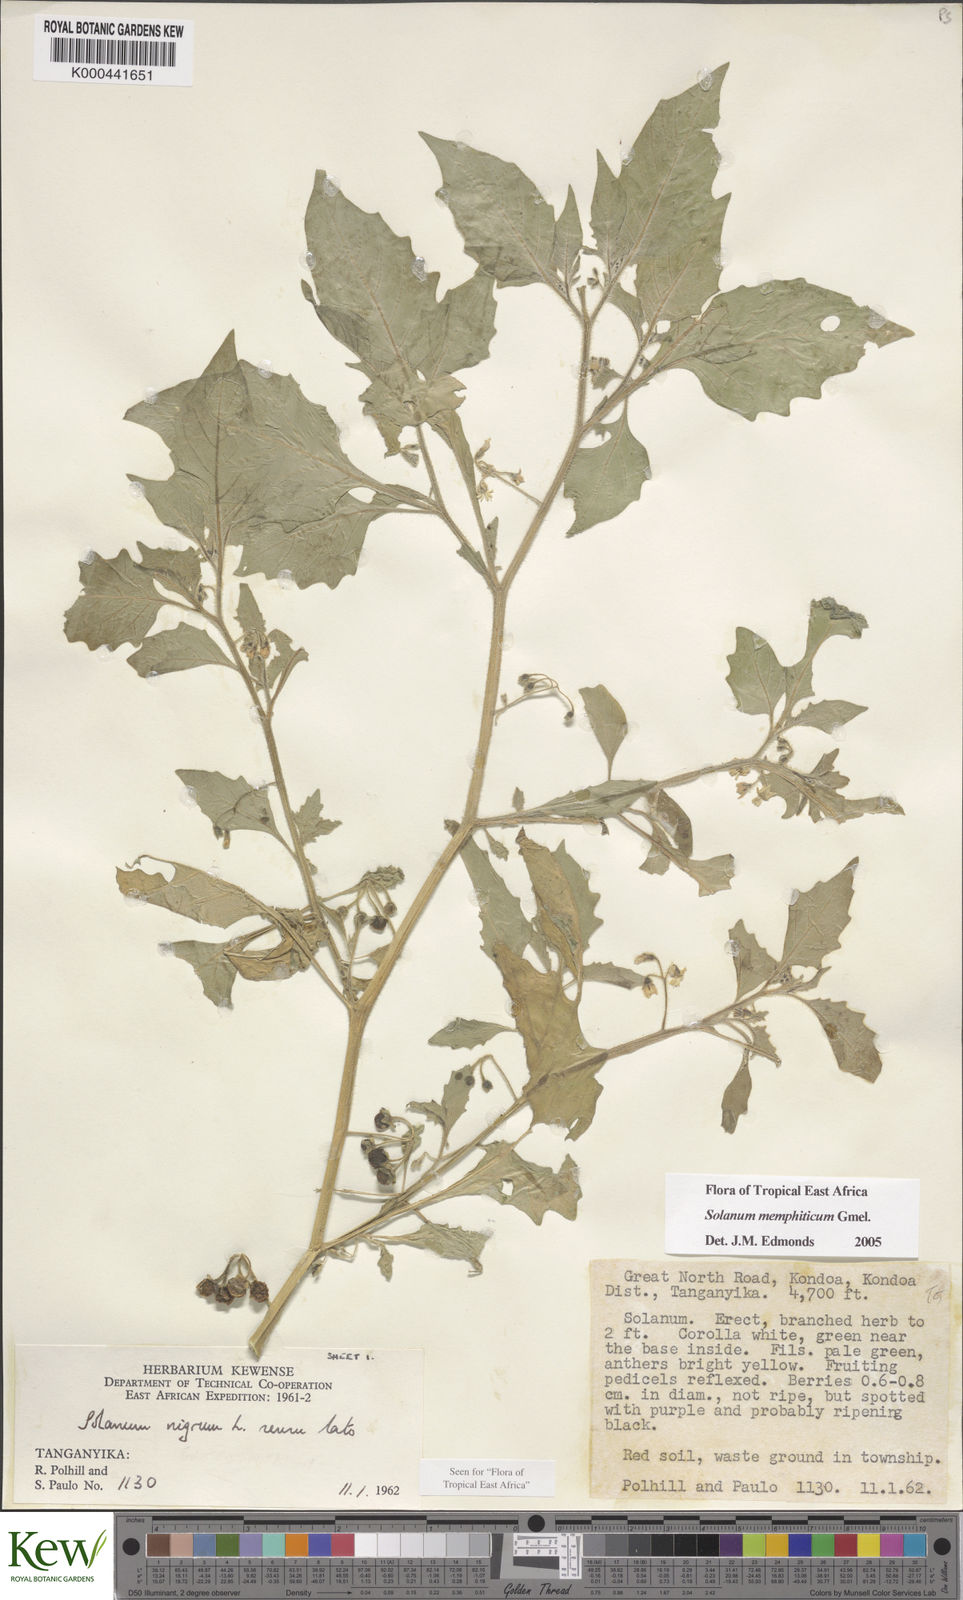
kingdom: Plantae
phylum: Tracheophyta
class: Magnoliopsida
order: Solanales
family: Solanaceae
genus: Solanum
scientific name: Solanum memphiticum
